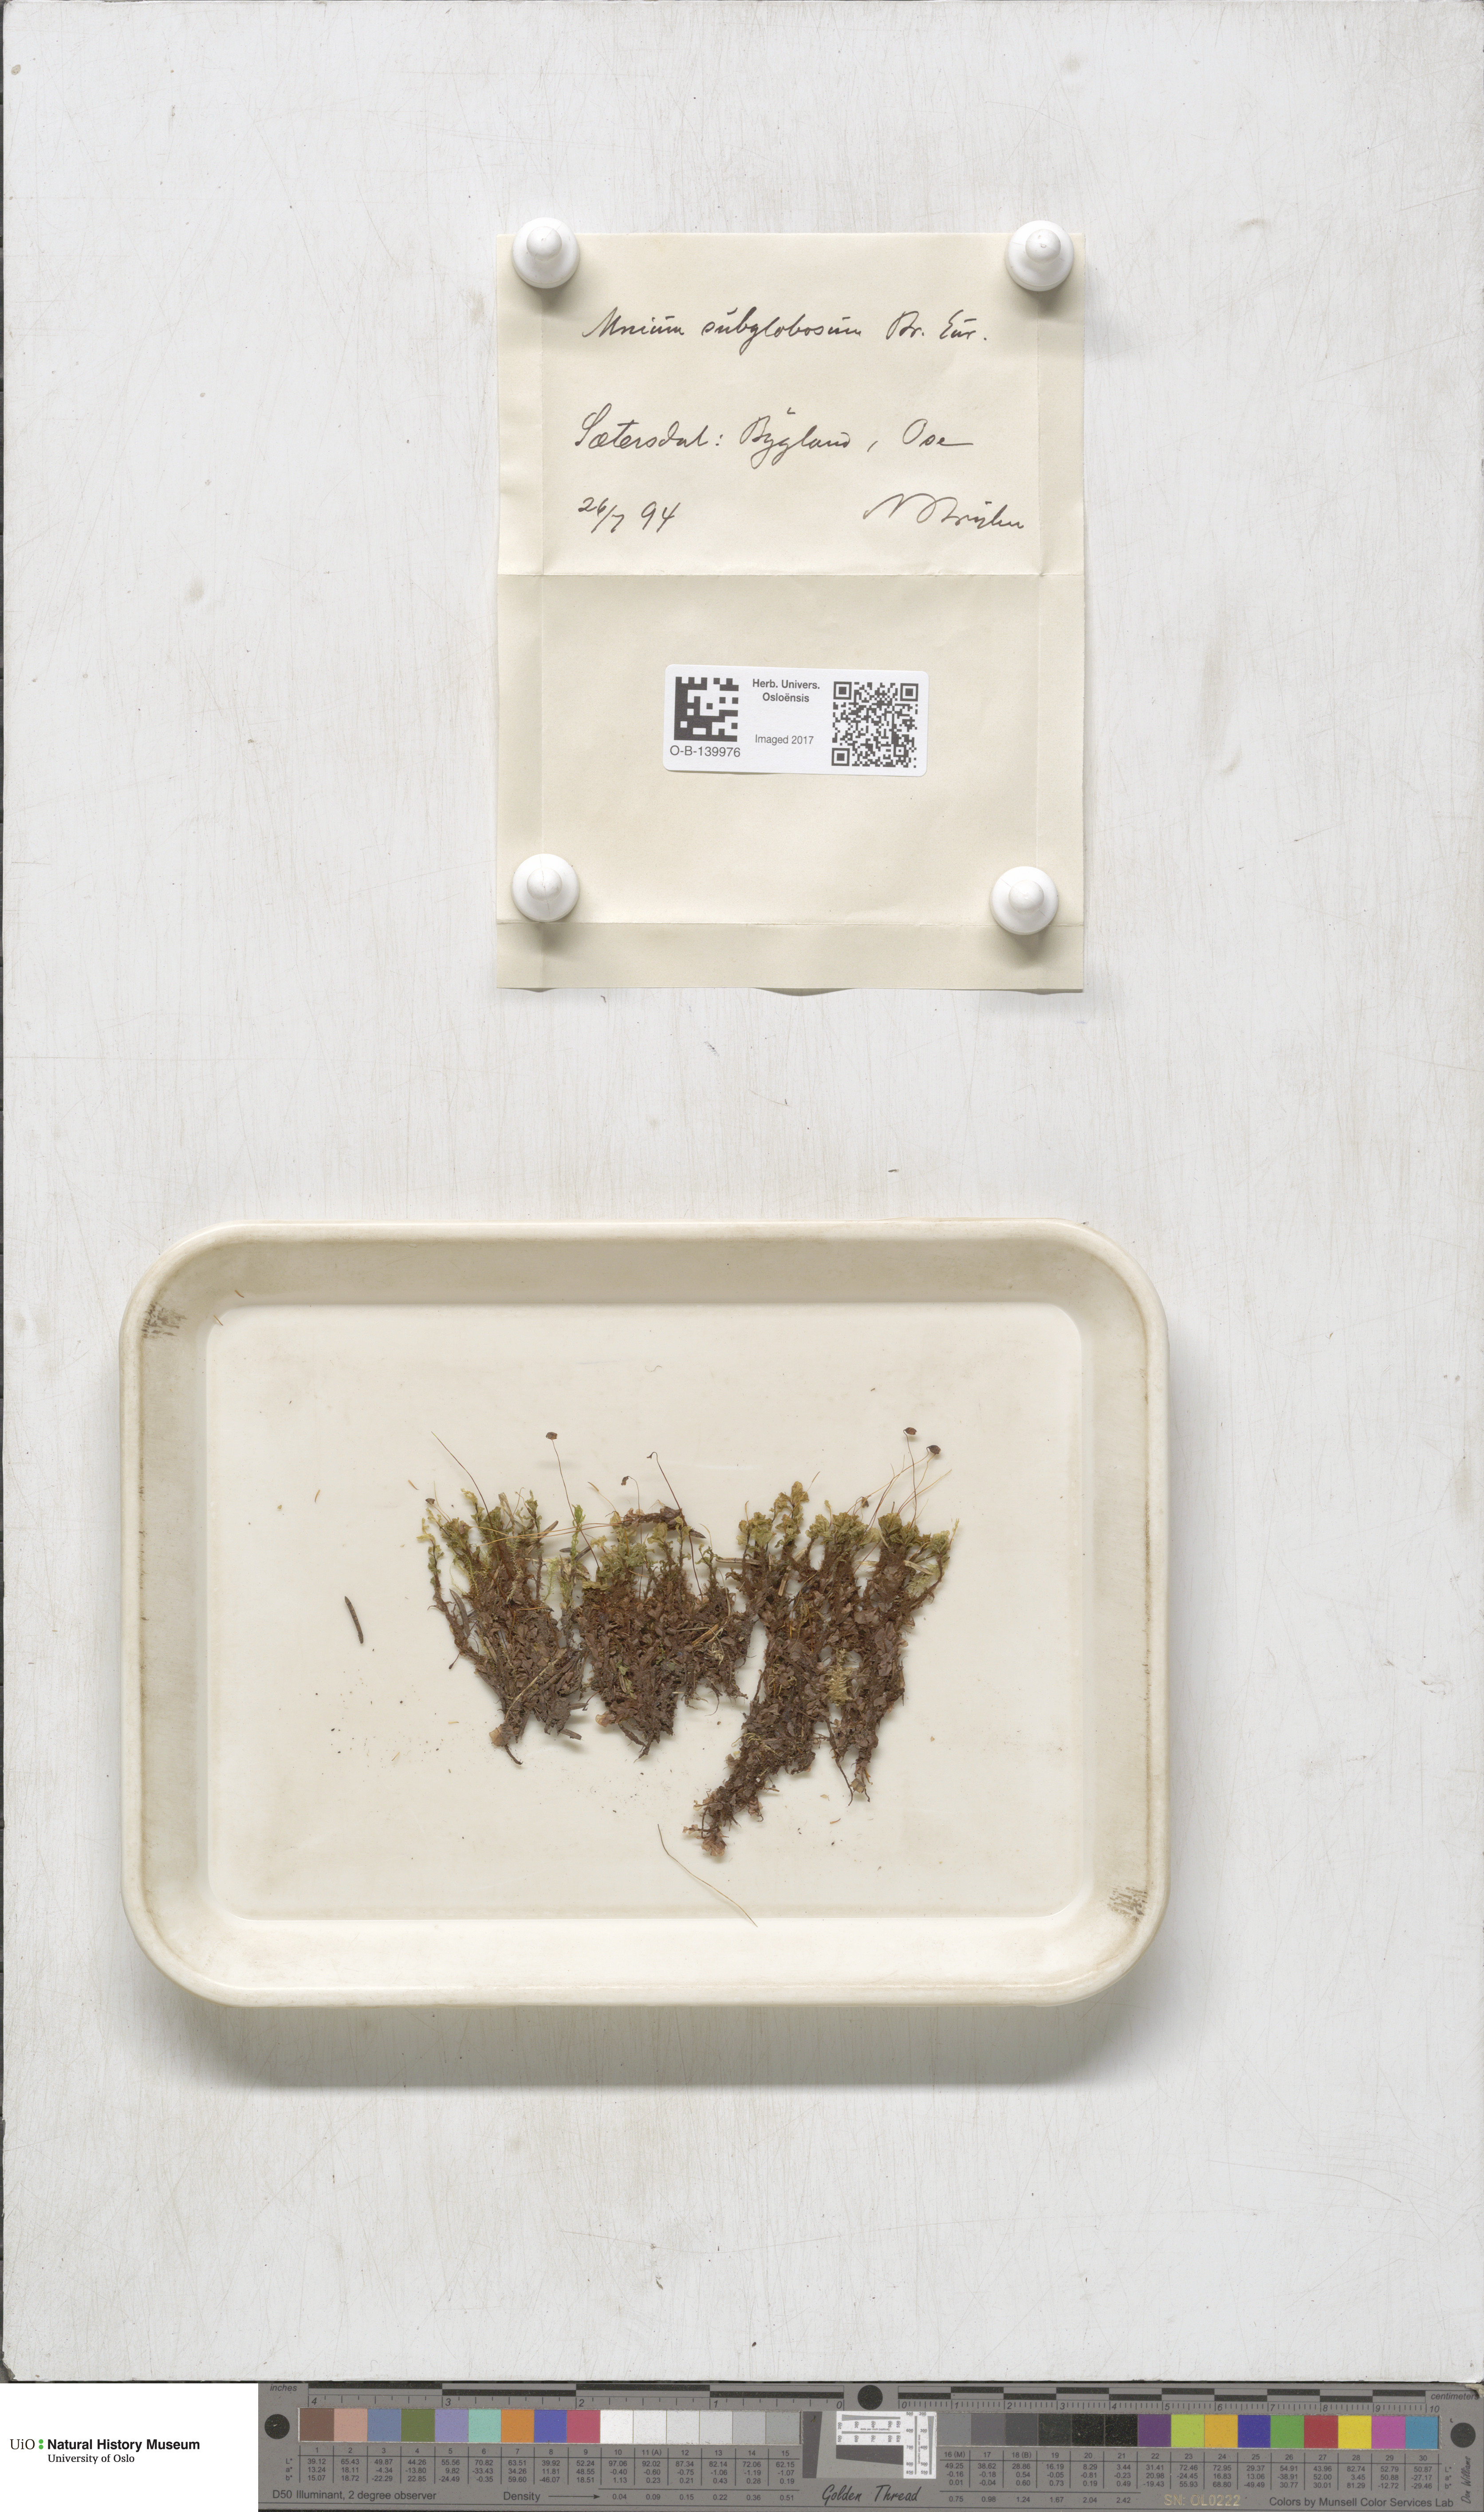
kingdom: Plantae
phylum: Bryophyta
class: Bryopsida
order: Bryales
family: Mniaceae
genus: Rhizomnium
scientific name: Rhizomnium pseudopunctatum
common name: Felted leafy moss
